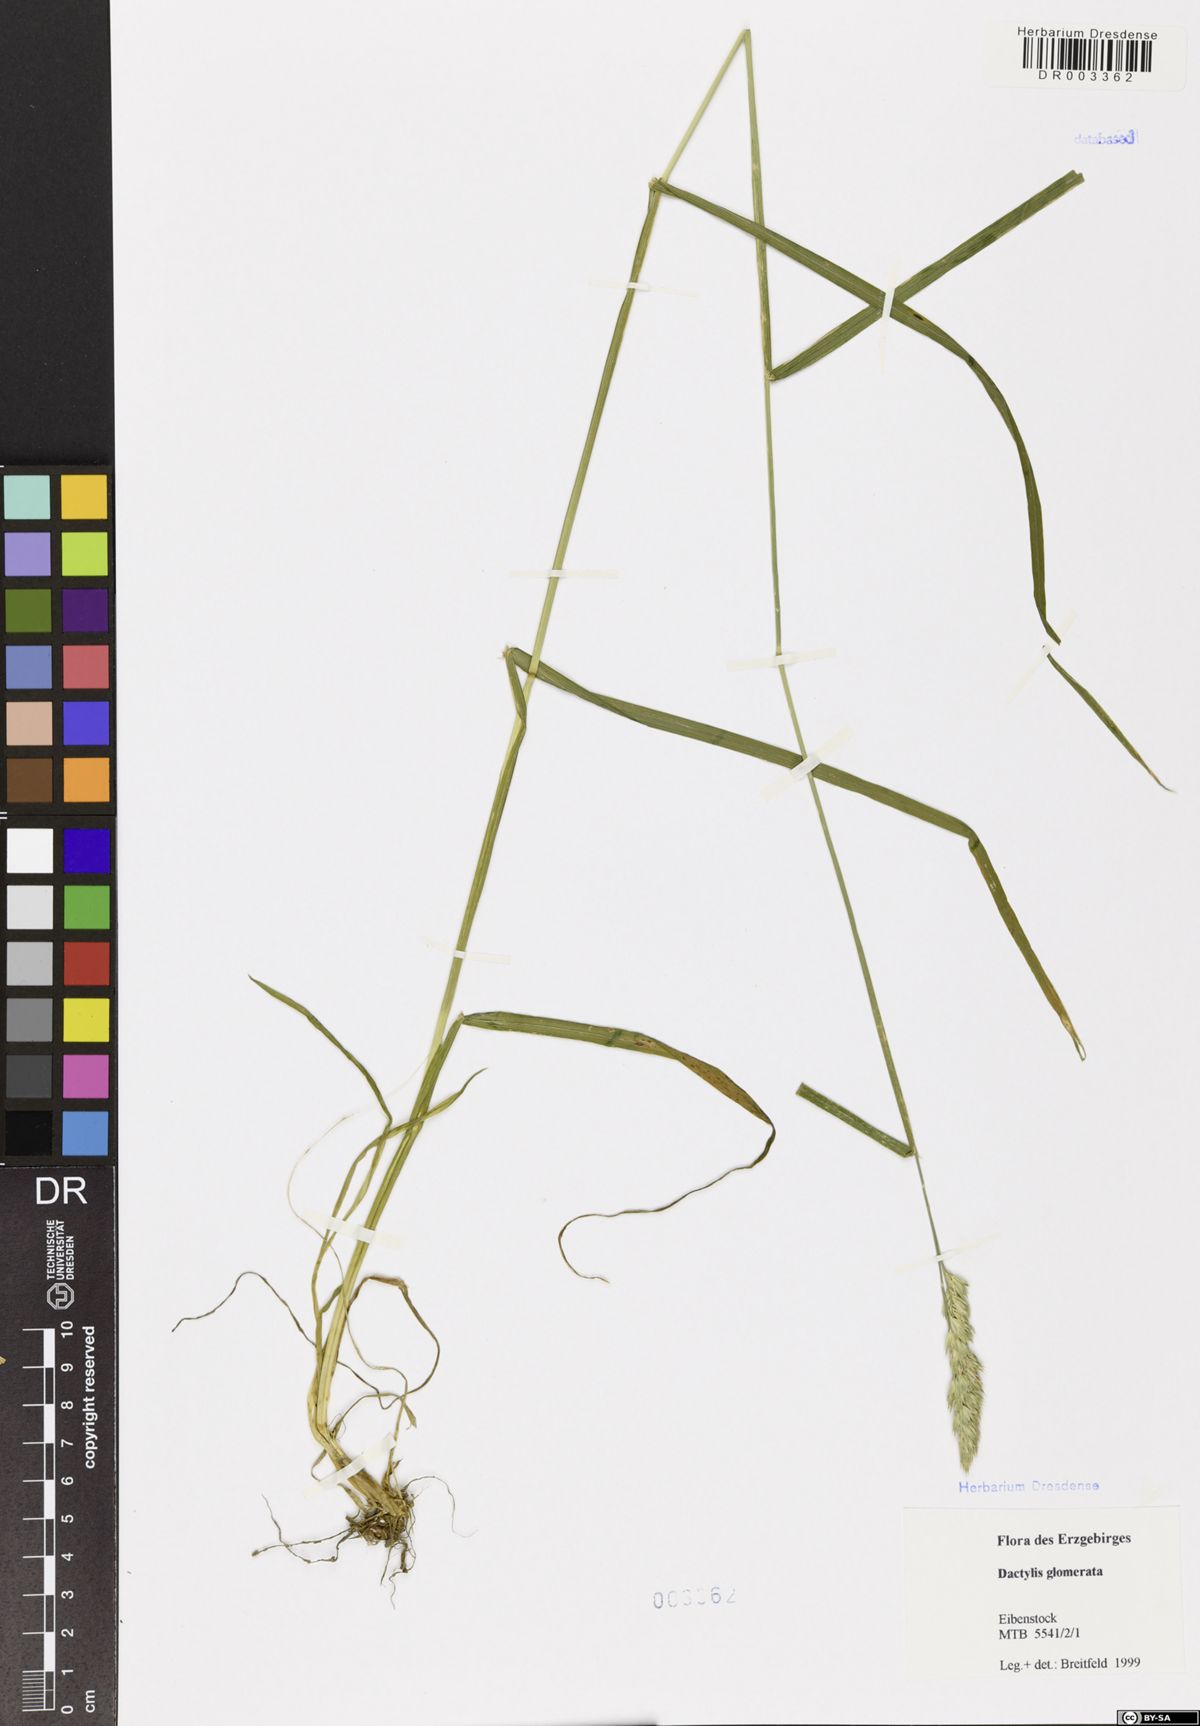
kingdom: Plantae
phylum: Tracheophyta
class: Liliopsida
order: Poales
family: Poaceae
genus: Dactylis
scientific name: Dactylis glomerata
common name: Orchardgrass
